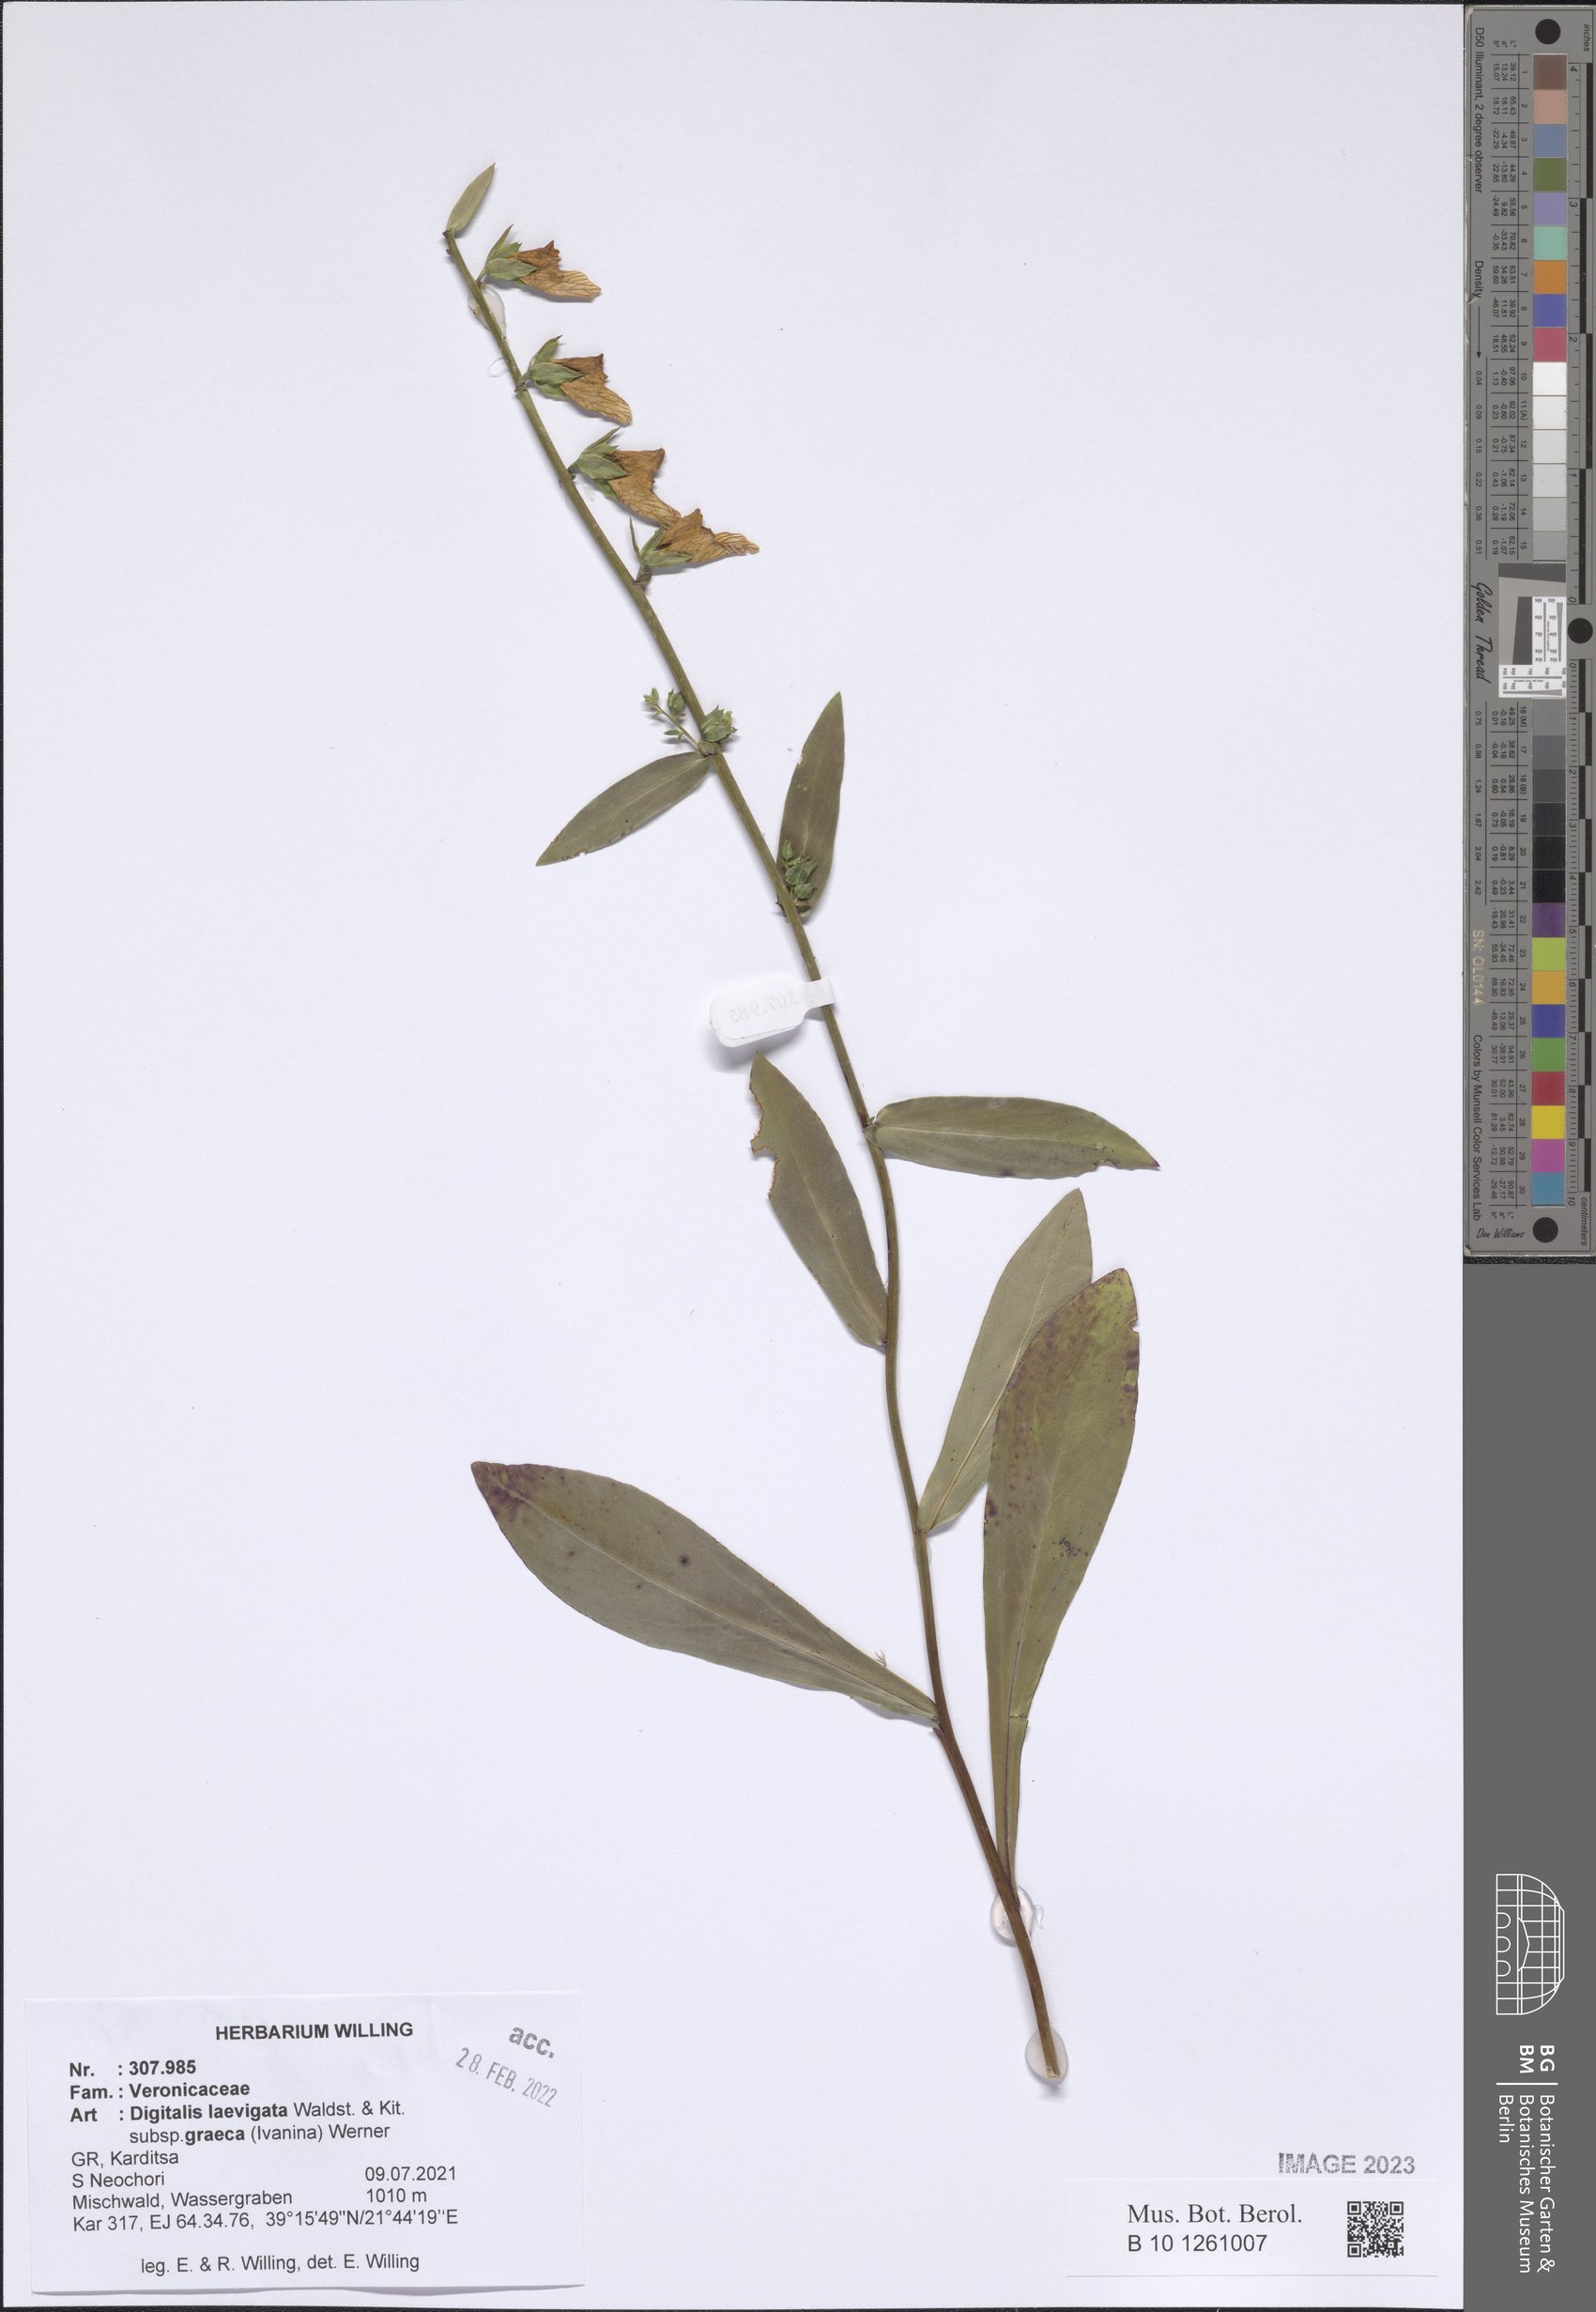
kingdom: Plantae
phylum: Tracheophyta
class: Magnoliopsida
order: Lamiales
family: Plantaginaceae
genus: Digitalis
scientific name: Digitalis laevigata
